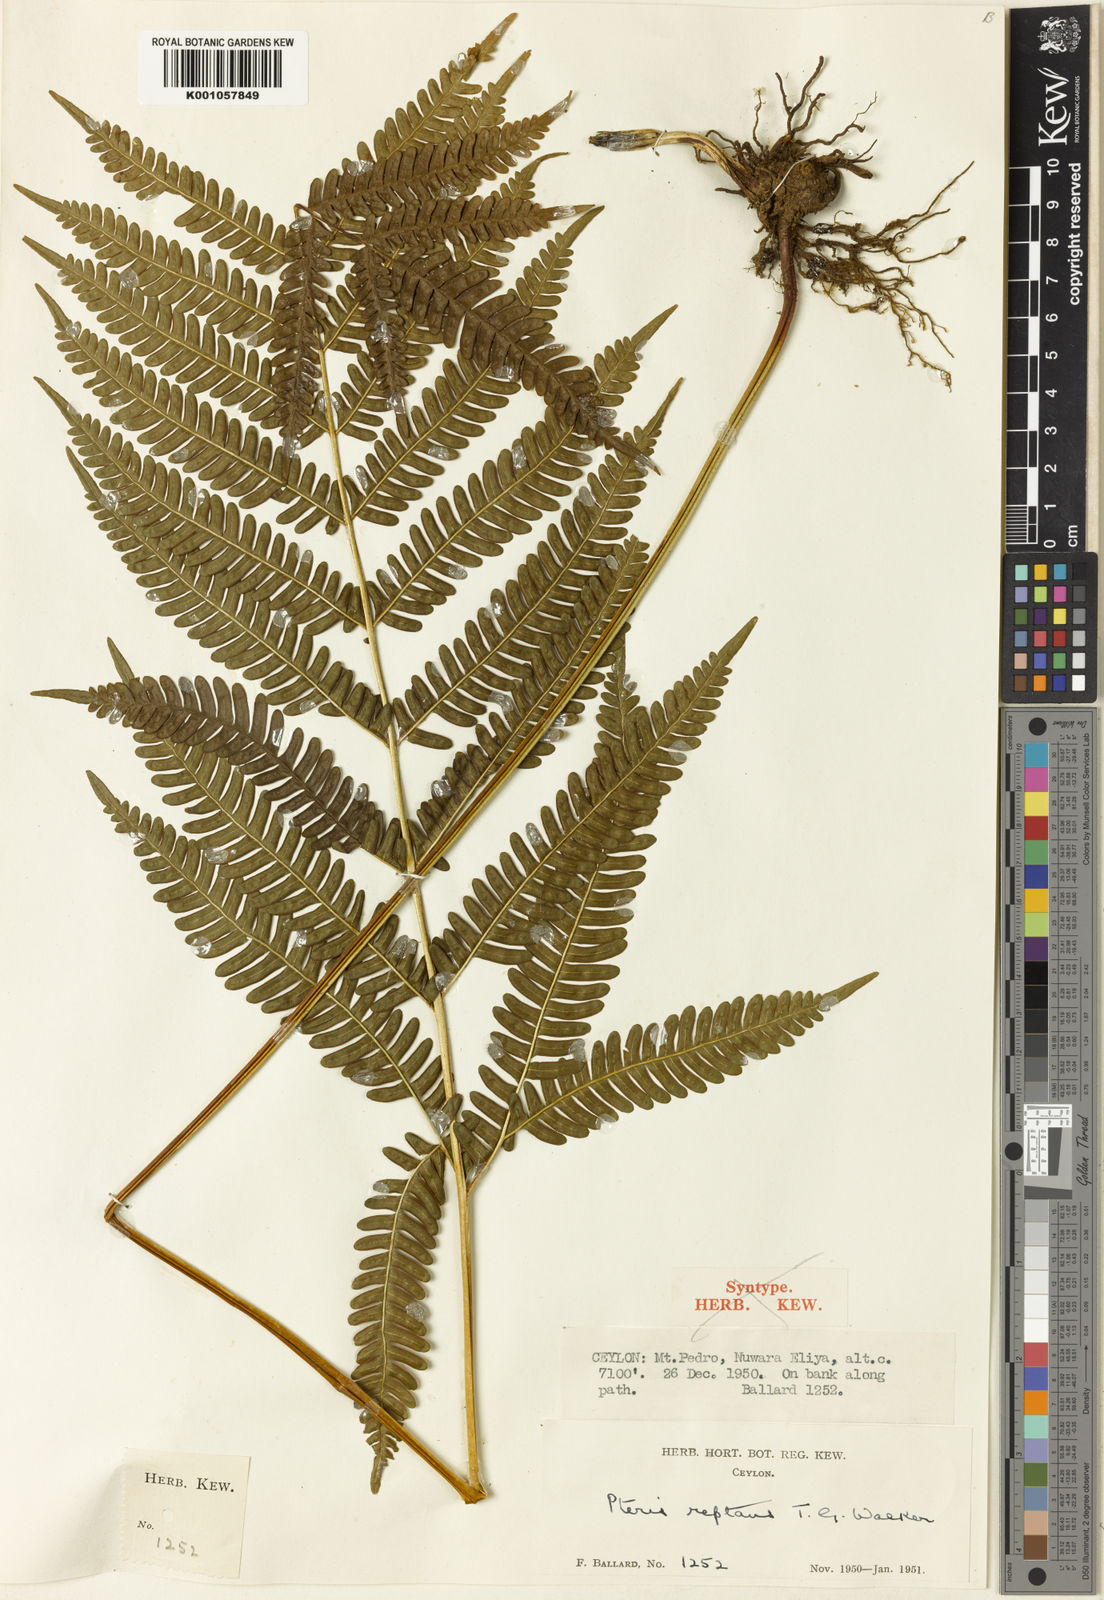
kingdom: Plantae
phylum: Tracheophyta
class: Polypodiopsida
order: Polypodiales
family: Pteridaceae
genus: Pteris
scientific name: Pteris reptans
